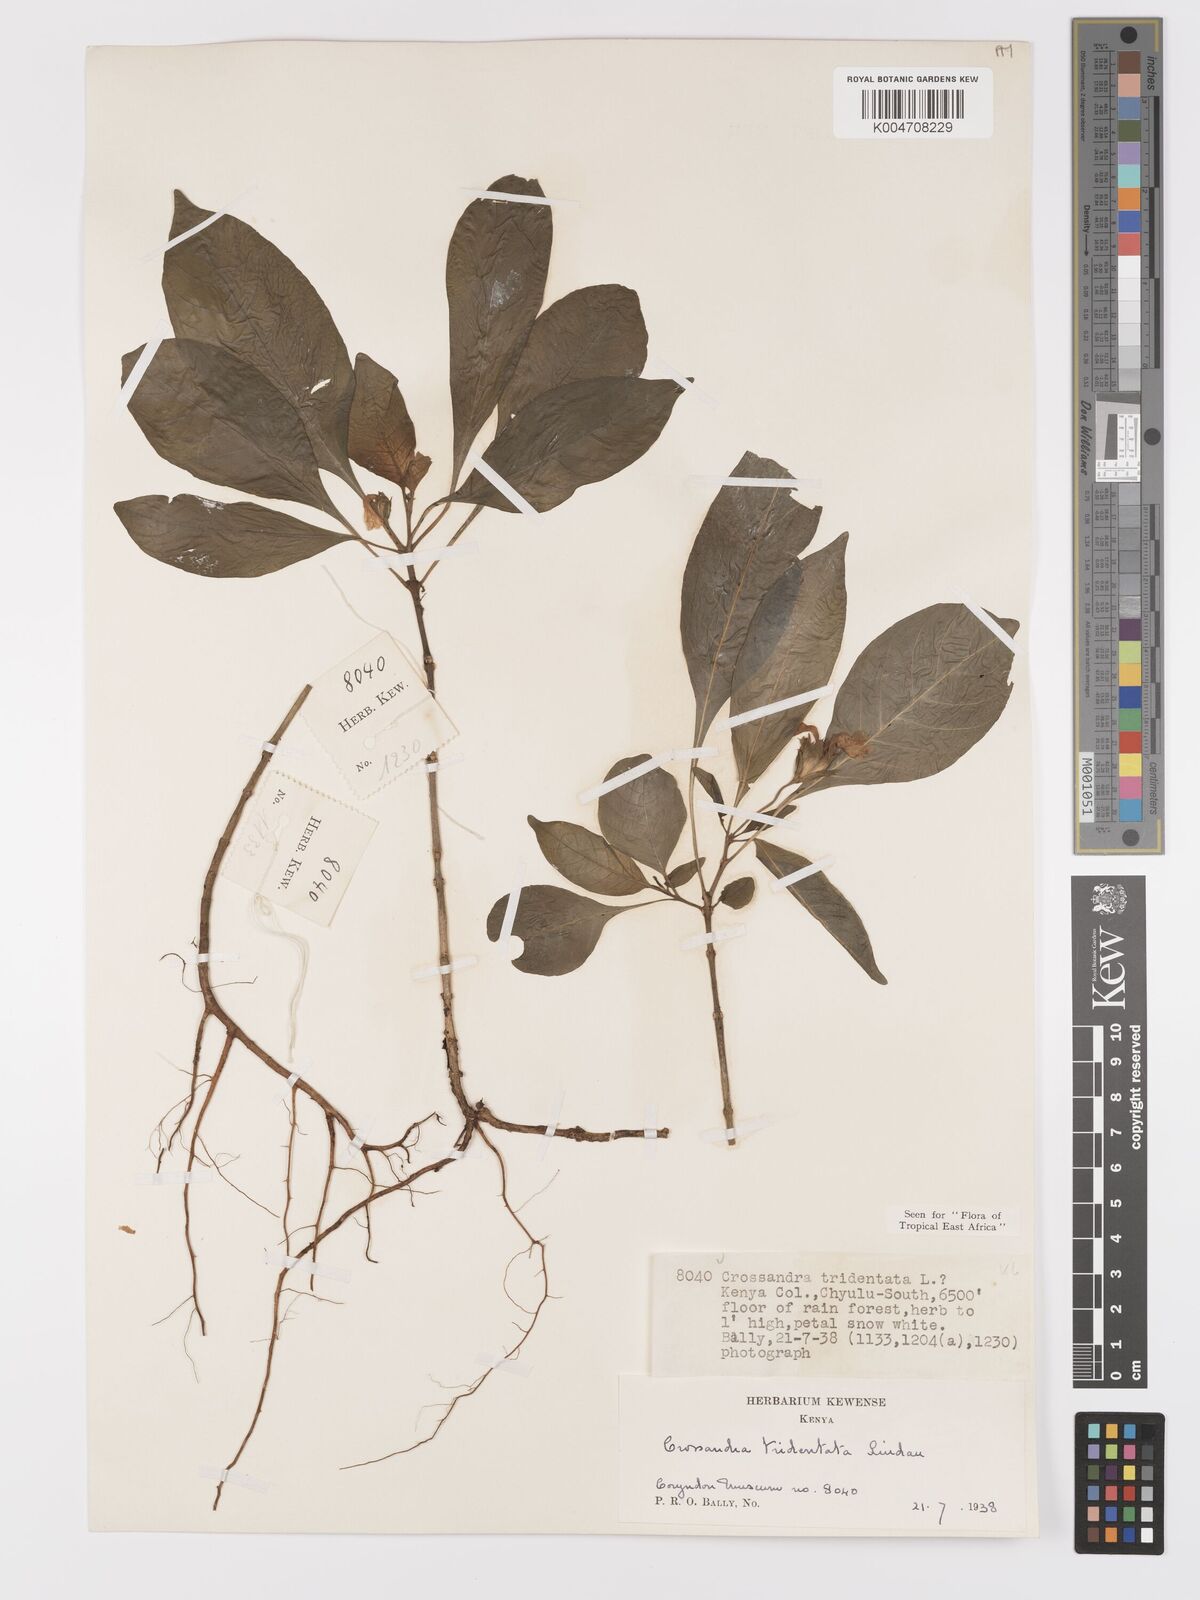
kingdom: Plantae
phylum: Tracheophyta
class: Magnoliopsida
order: Lamiales
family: Acanthaceae
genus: Crossandra
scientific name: Crossandra tridentata
